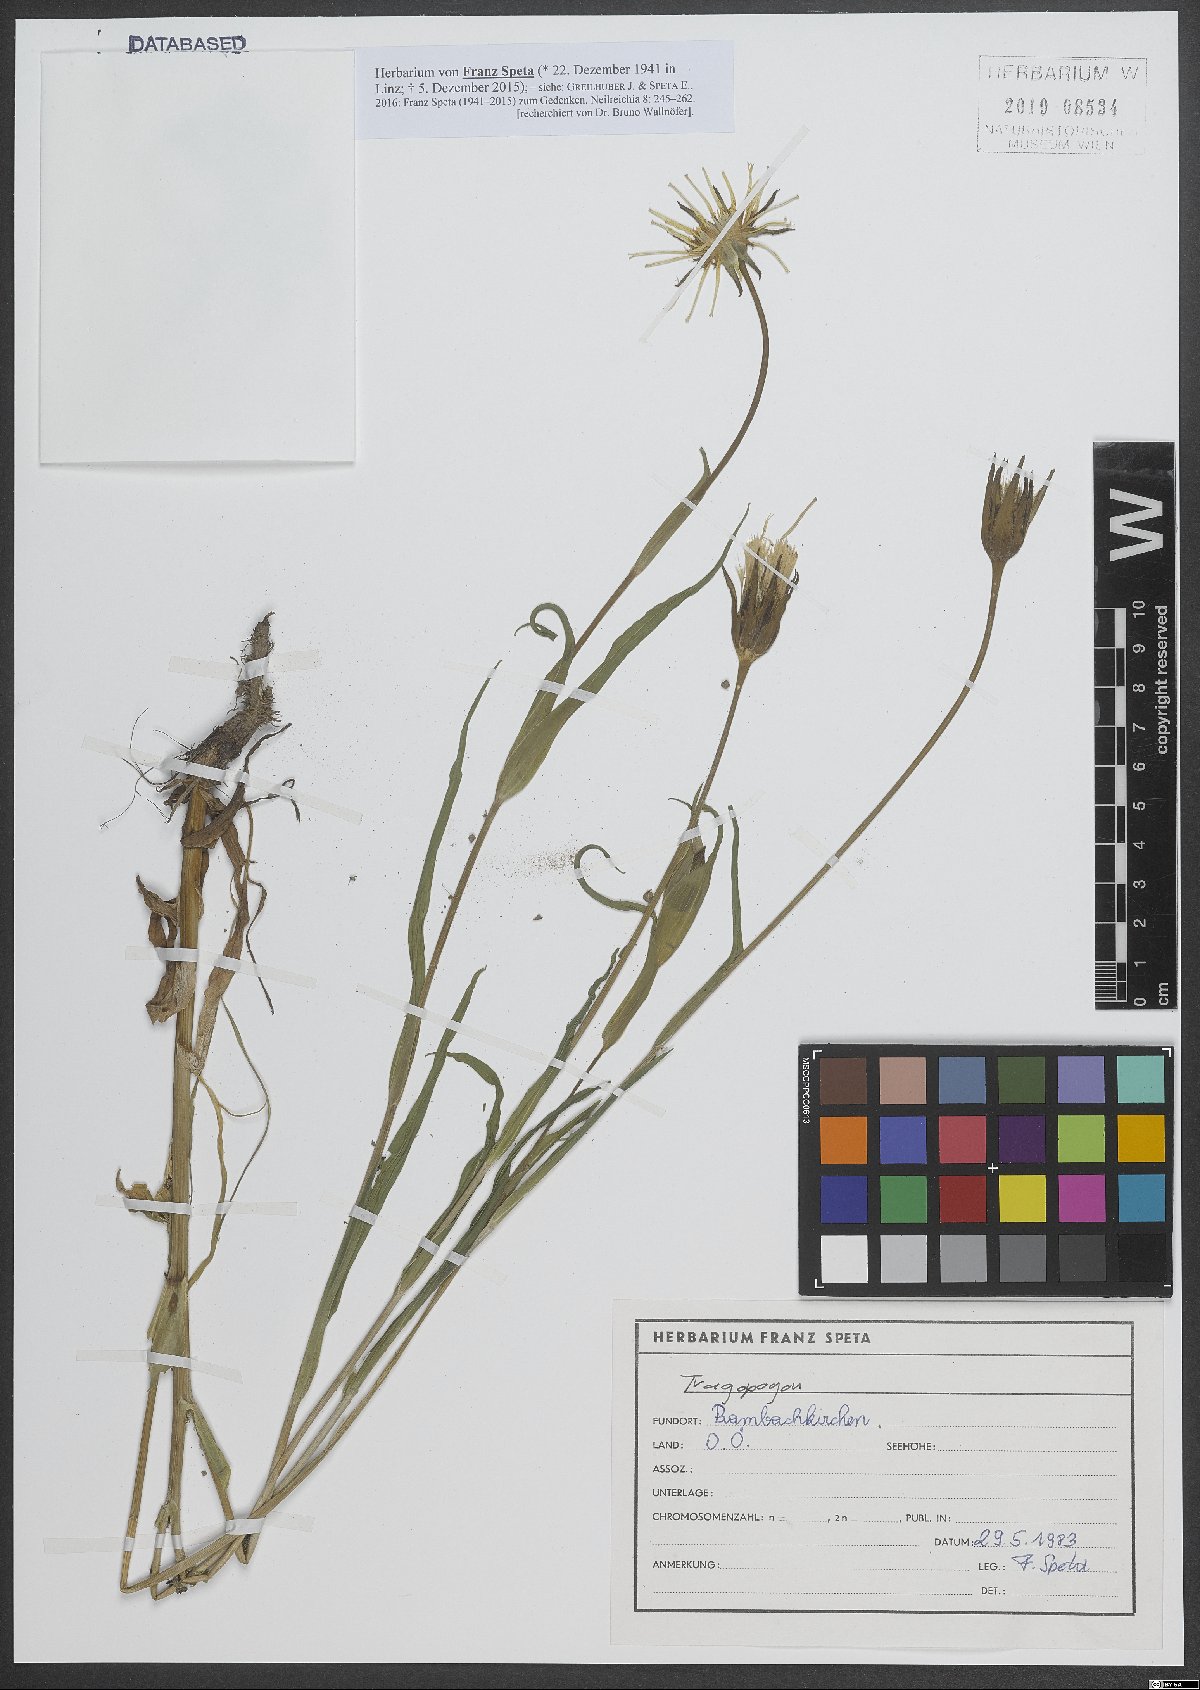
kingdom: Plantae
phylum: Tracheophyta
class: Magnoliopsida
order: Asterales
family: Asteraceae
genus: Tragopogon
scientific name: Tragopogon
